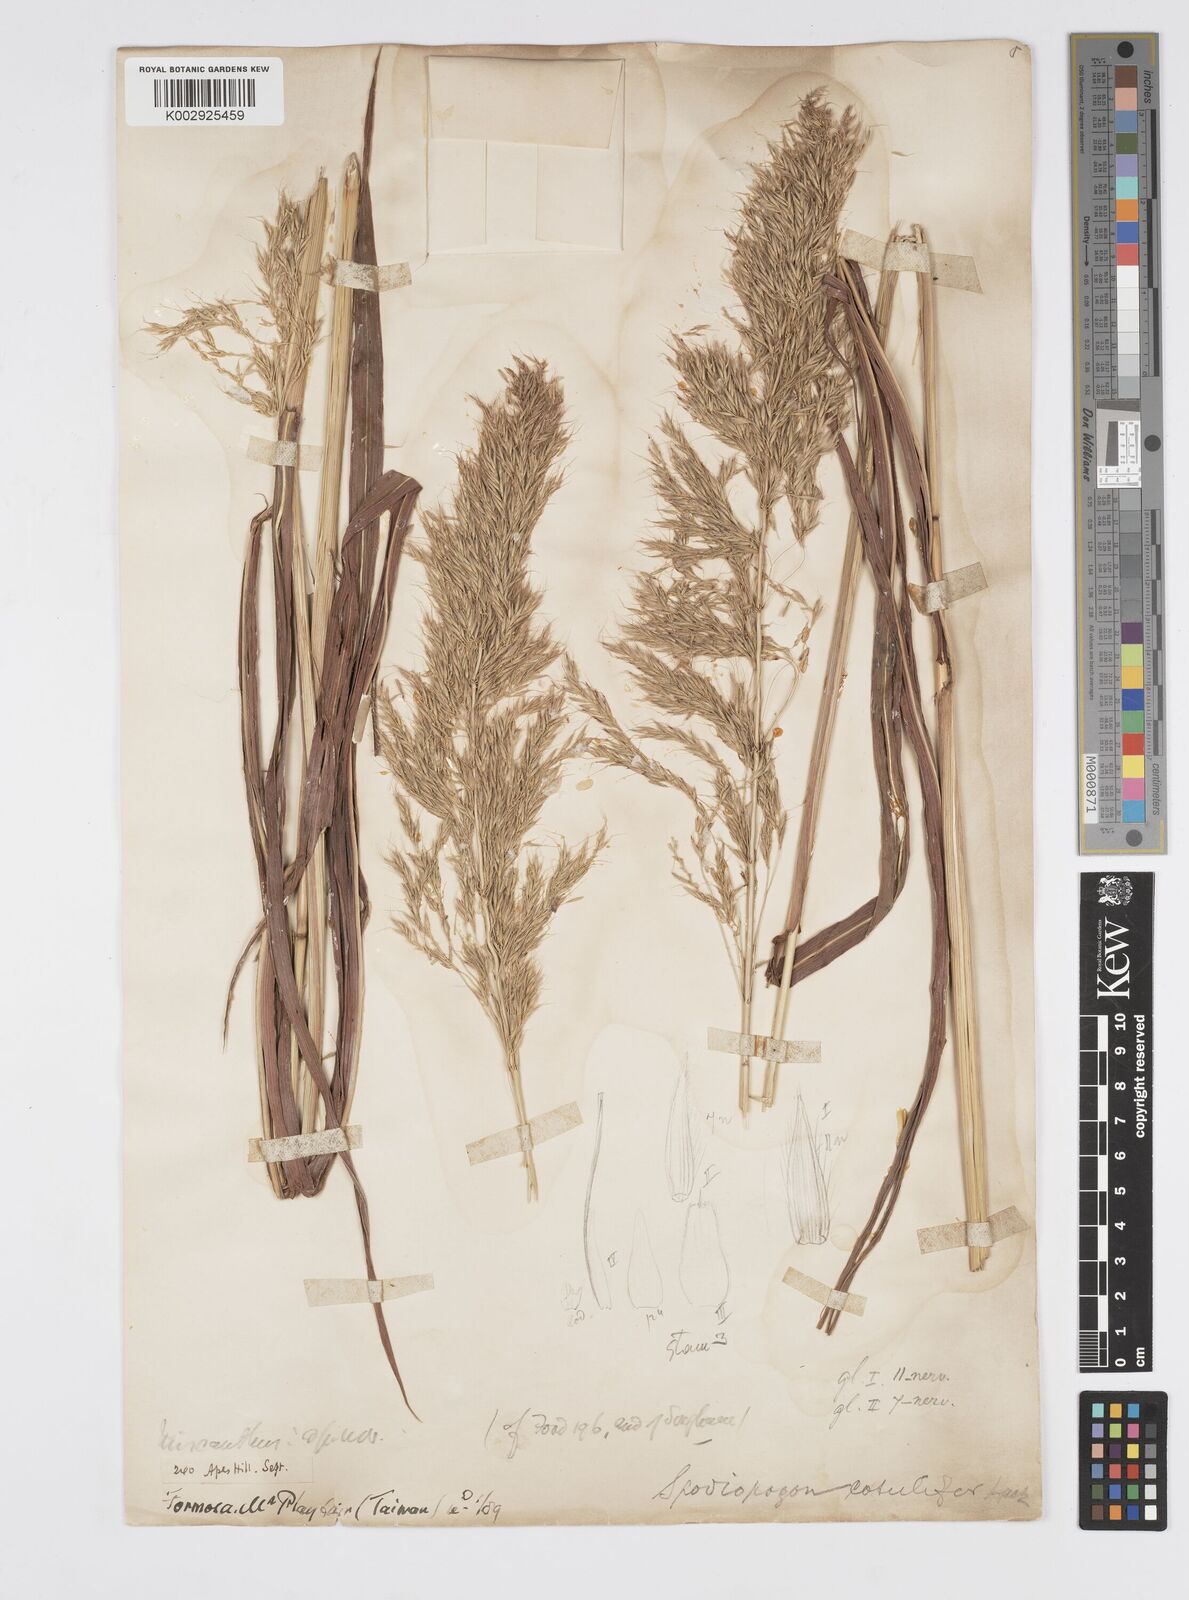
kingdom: Plantae
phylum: Tracheophyta
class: Liliopsida
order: Poales
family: Poaceae
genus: Spodiopogon
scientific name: Spodiopogon cotulifer
